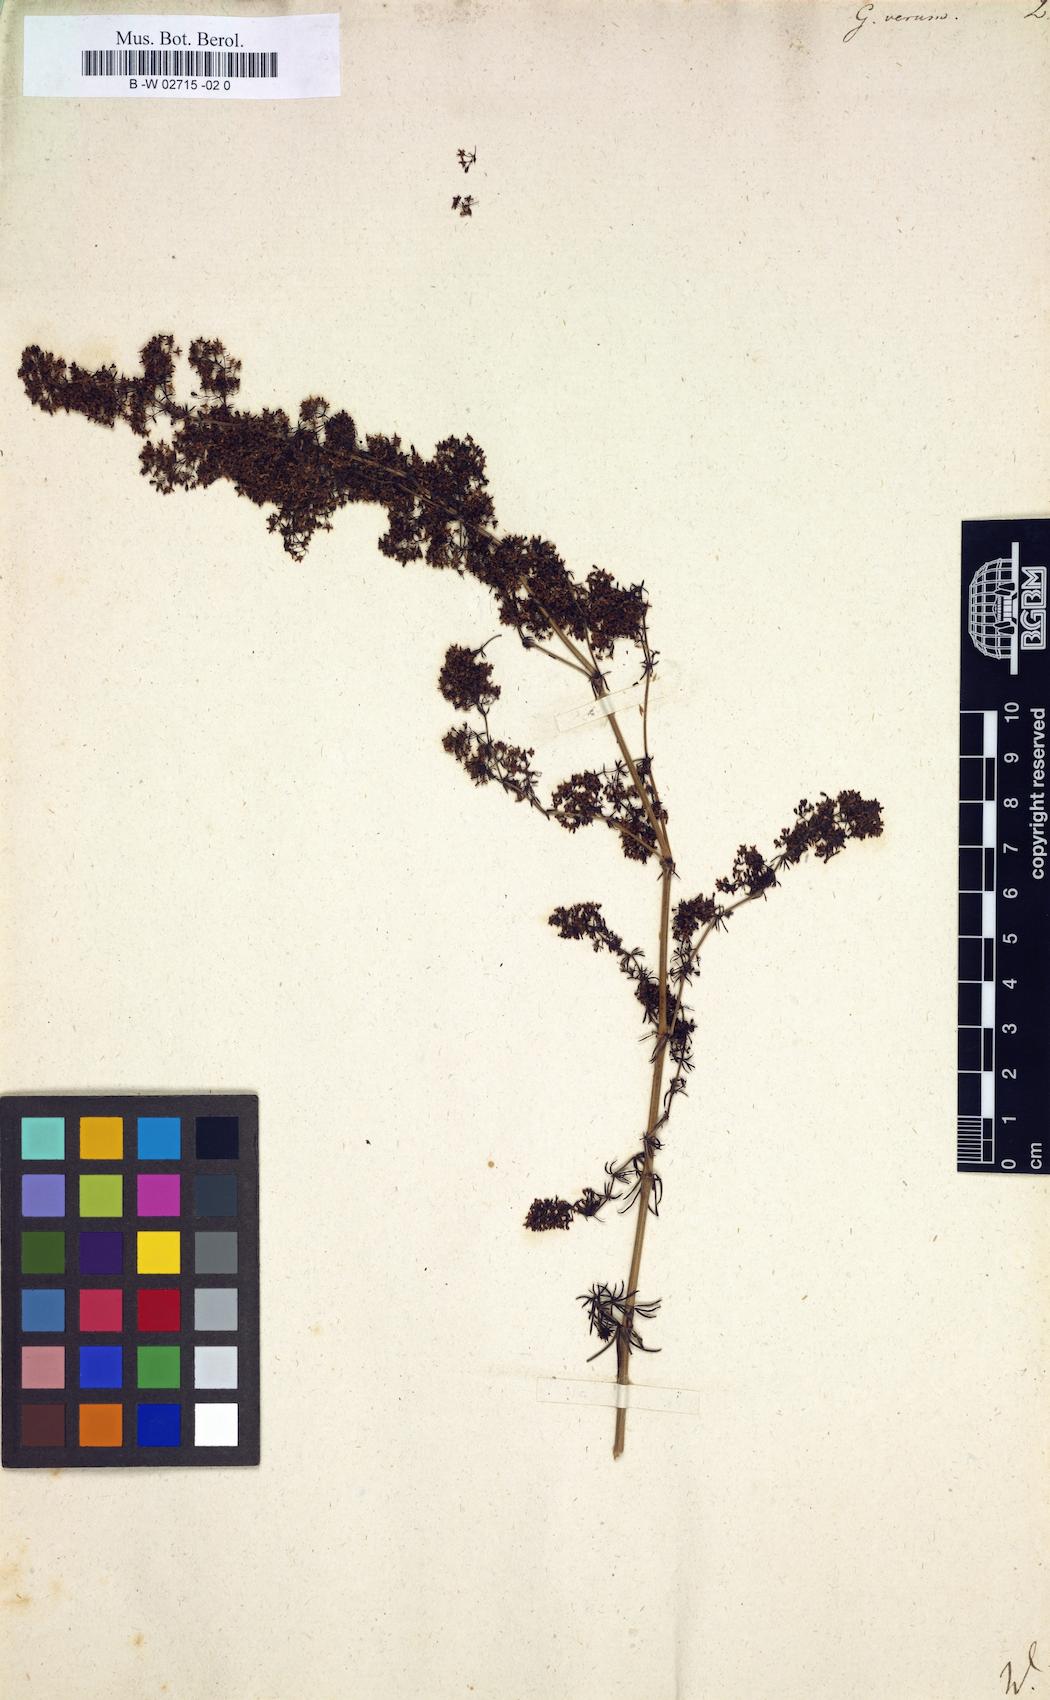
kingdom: Plantae
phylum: Tracheophyta
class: Magnoliopsida
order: Gentianales
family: Rubiaceae
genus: Galium
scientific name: Galium verum
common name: Lady's bedstraw
